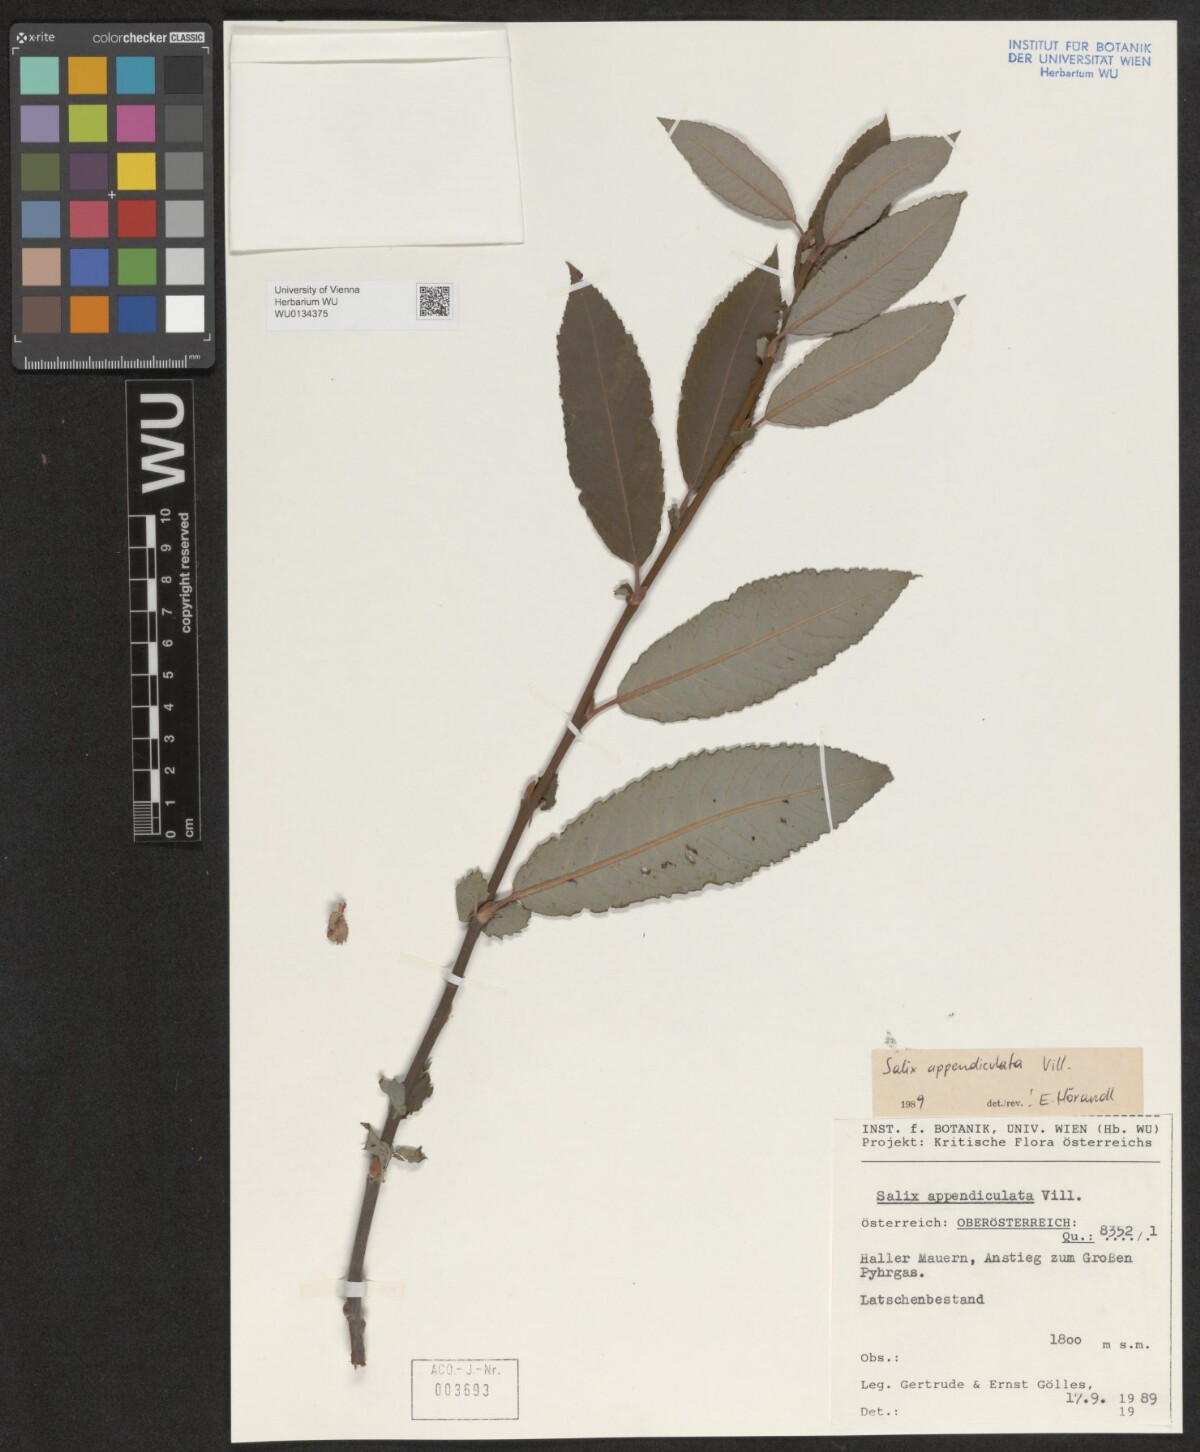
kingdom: Plantae
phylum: Tracheophyta
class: Magnoliopsida
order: Malpighiales
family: Salicaceae
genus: Salix
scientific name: Salix appendiculata
